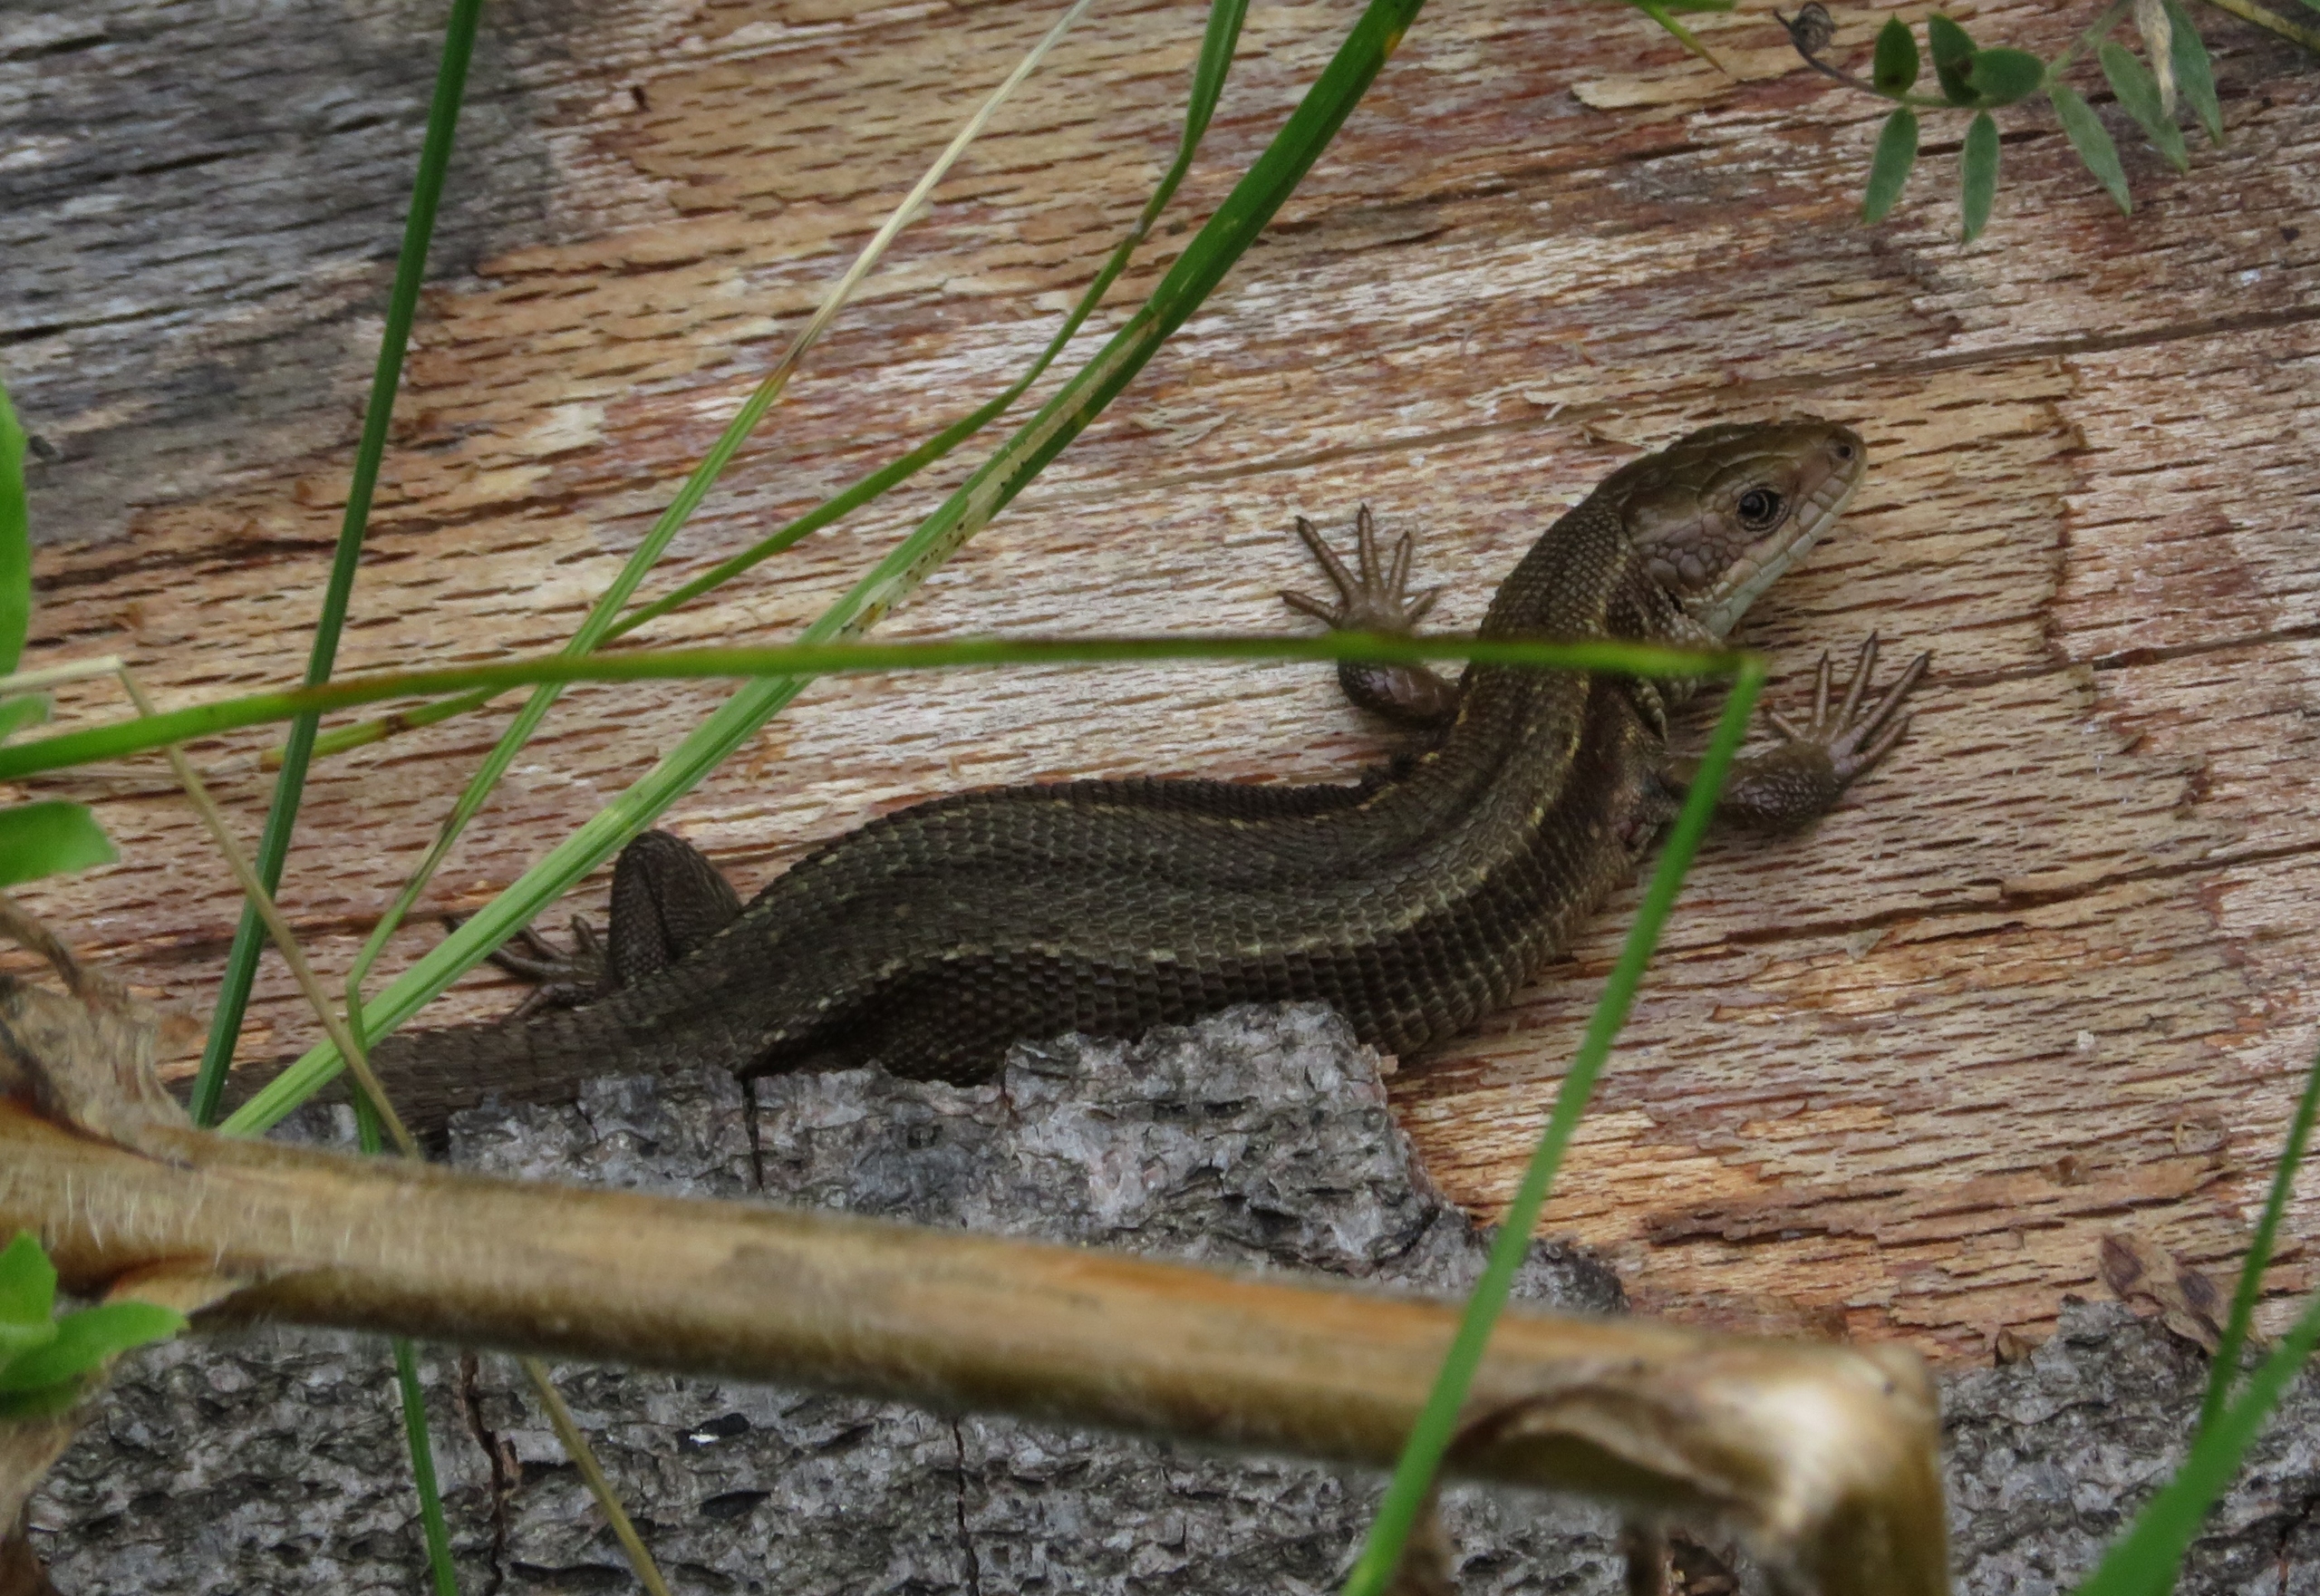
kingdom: Animalia
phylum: Chordata
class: Squamata
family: Lacertidae
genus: Zootoca
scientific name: Zootoca vivipara
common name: Skovfirben
